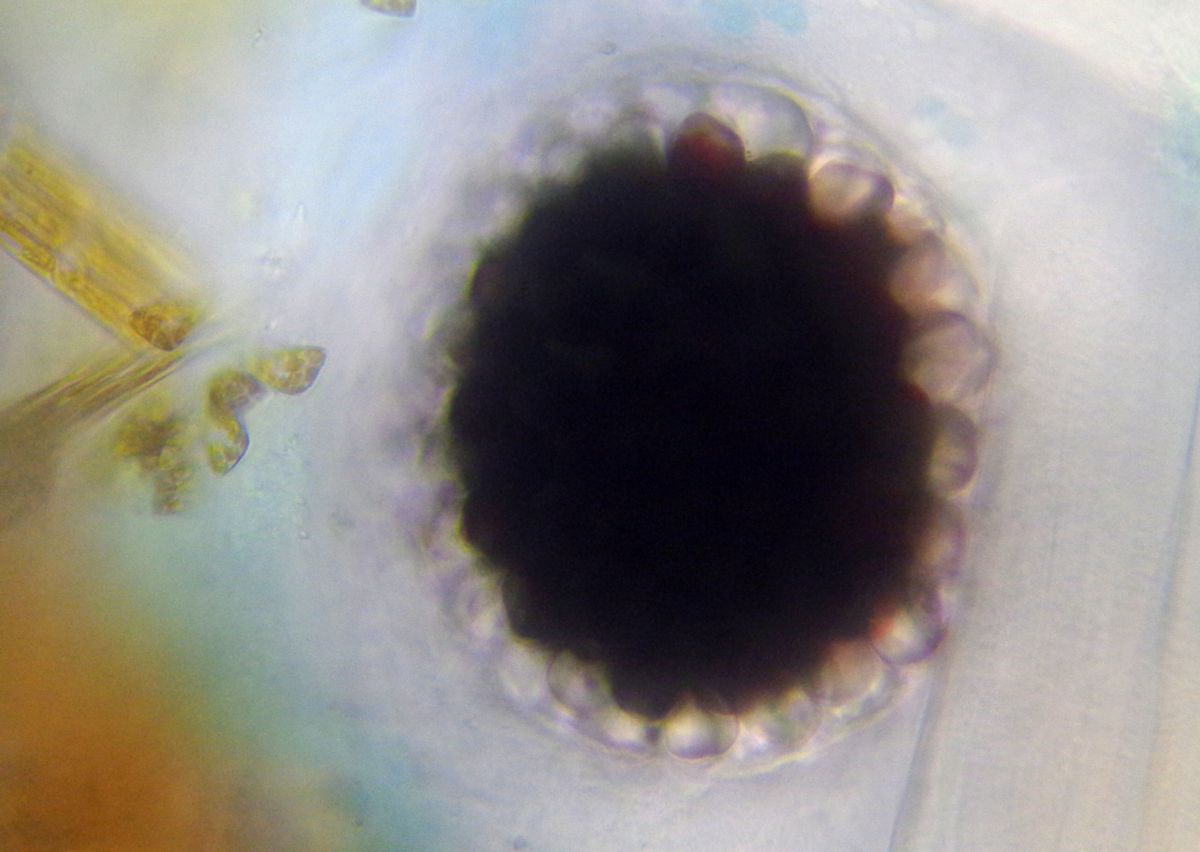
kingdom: Animalia
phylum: Arthropoda
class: Malacostraca
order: Amphipoda
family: Caprellidae
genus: Caprella
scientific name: Caprella septentrionalis
